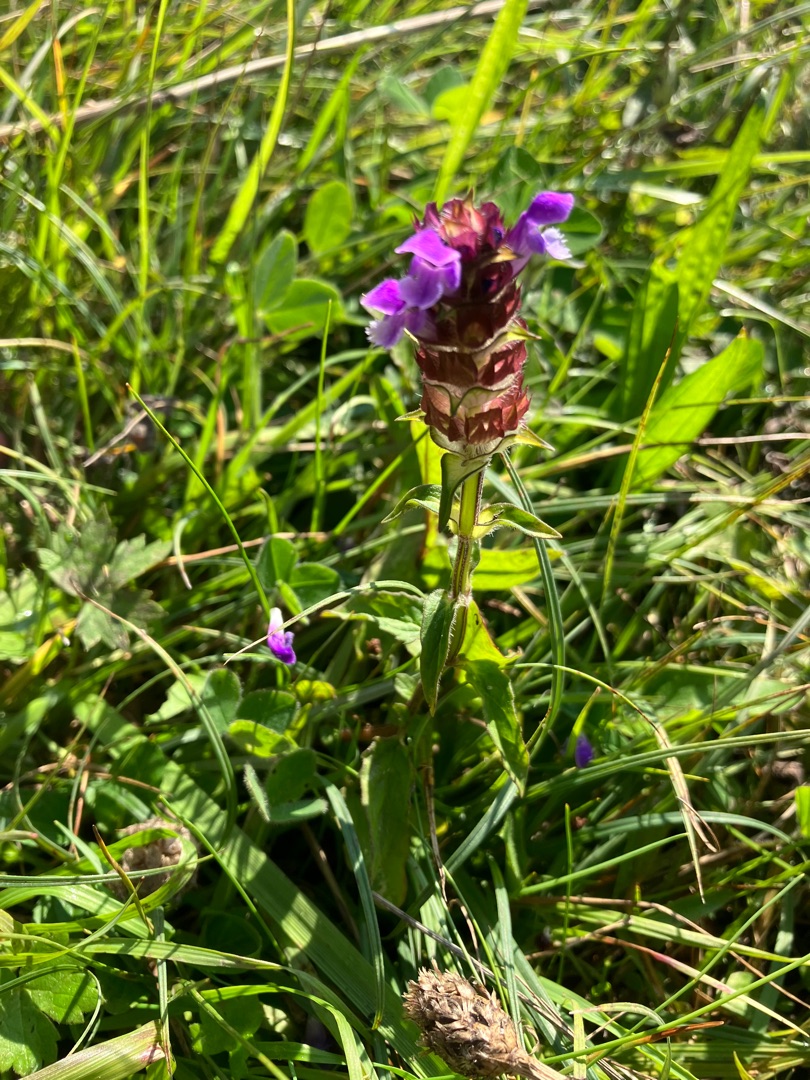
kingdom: Plantae
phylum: Tracheophyta
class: Magnoliopsida
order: Lamiales
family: Lamiaceae
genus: Prunella
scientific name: Prunella vulgaris
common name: Almindelig brunelle
